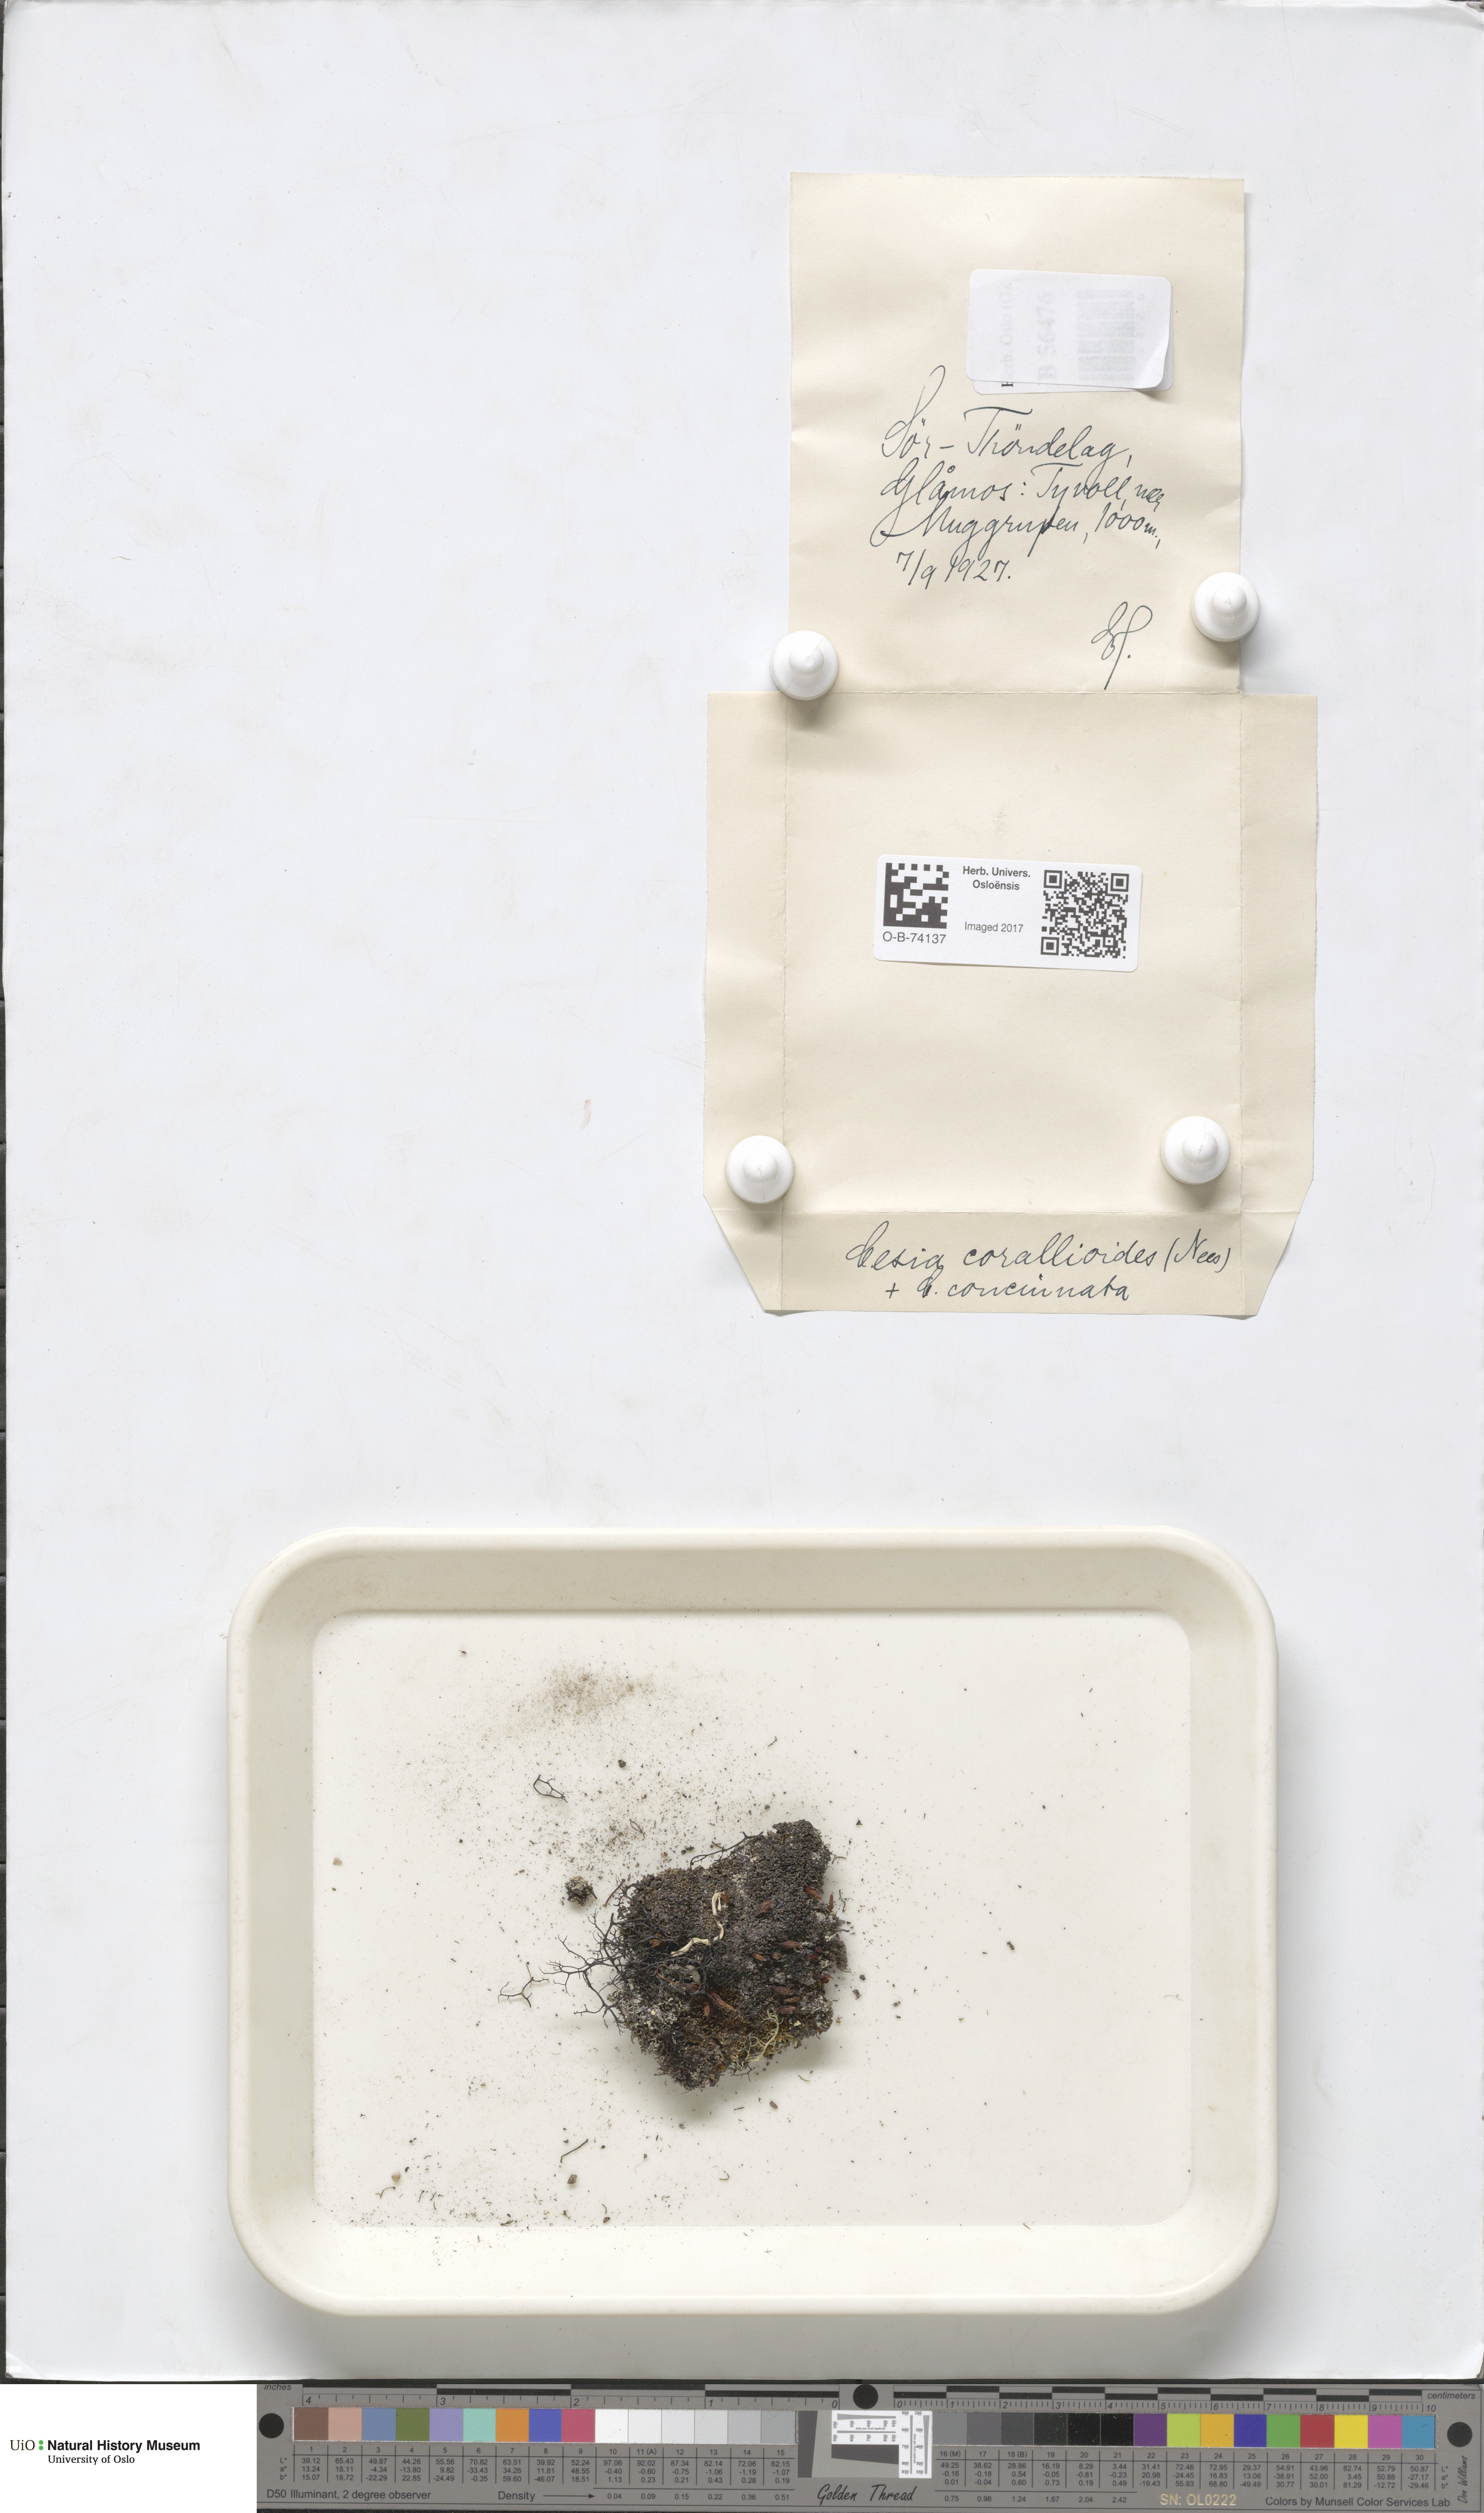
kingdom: Plantae
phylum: Marchantiophyta
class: Jungermanniopsida
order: Jungermanniales
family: Gymnomitriaceae
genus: Gymnomitrion
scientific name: Gymnomitrion corallioides
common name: Coral frostwort
